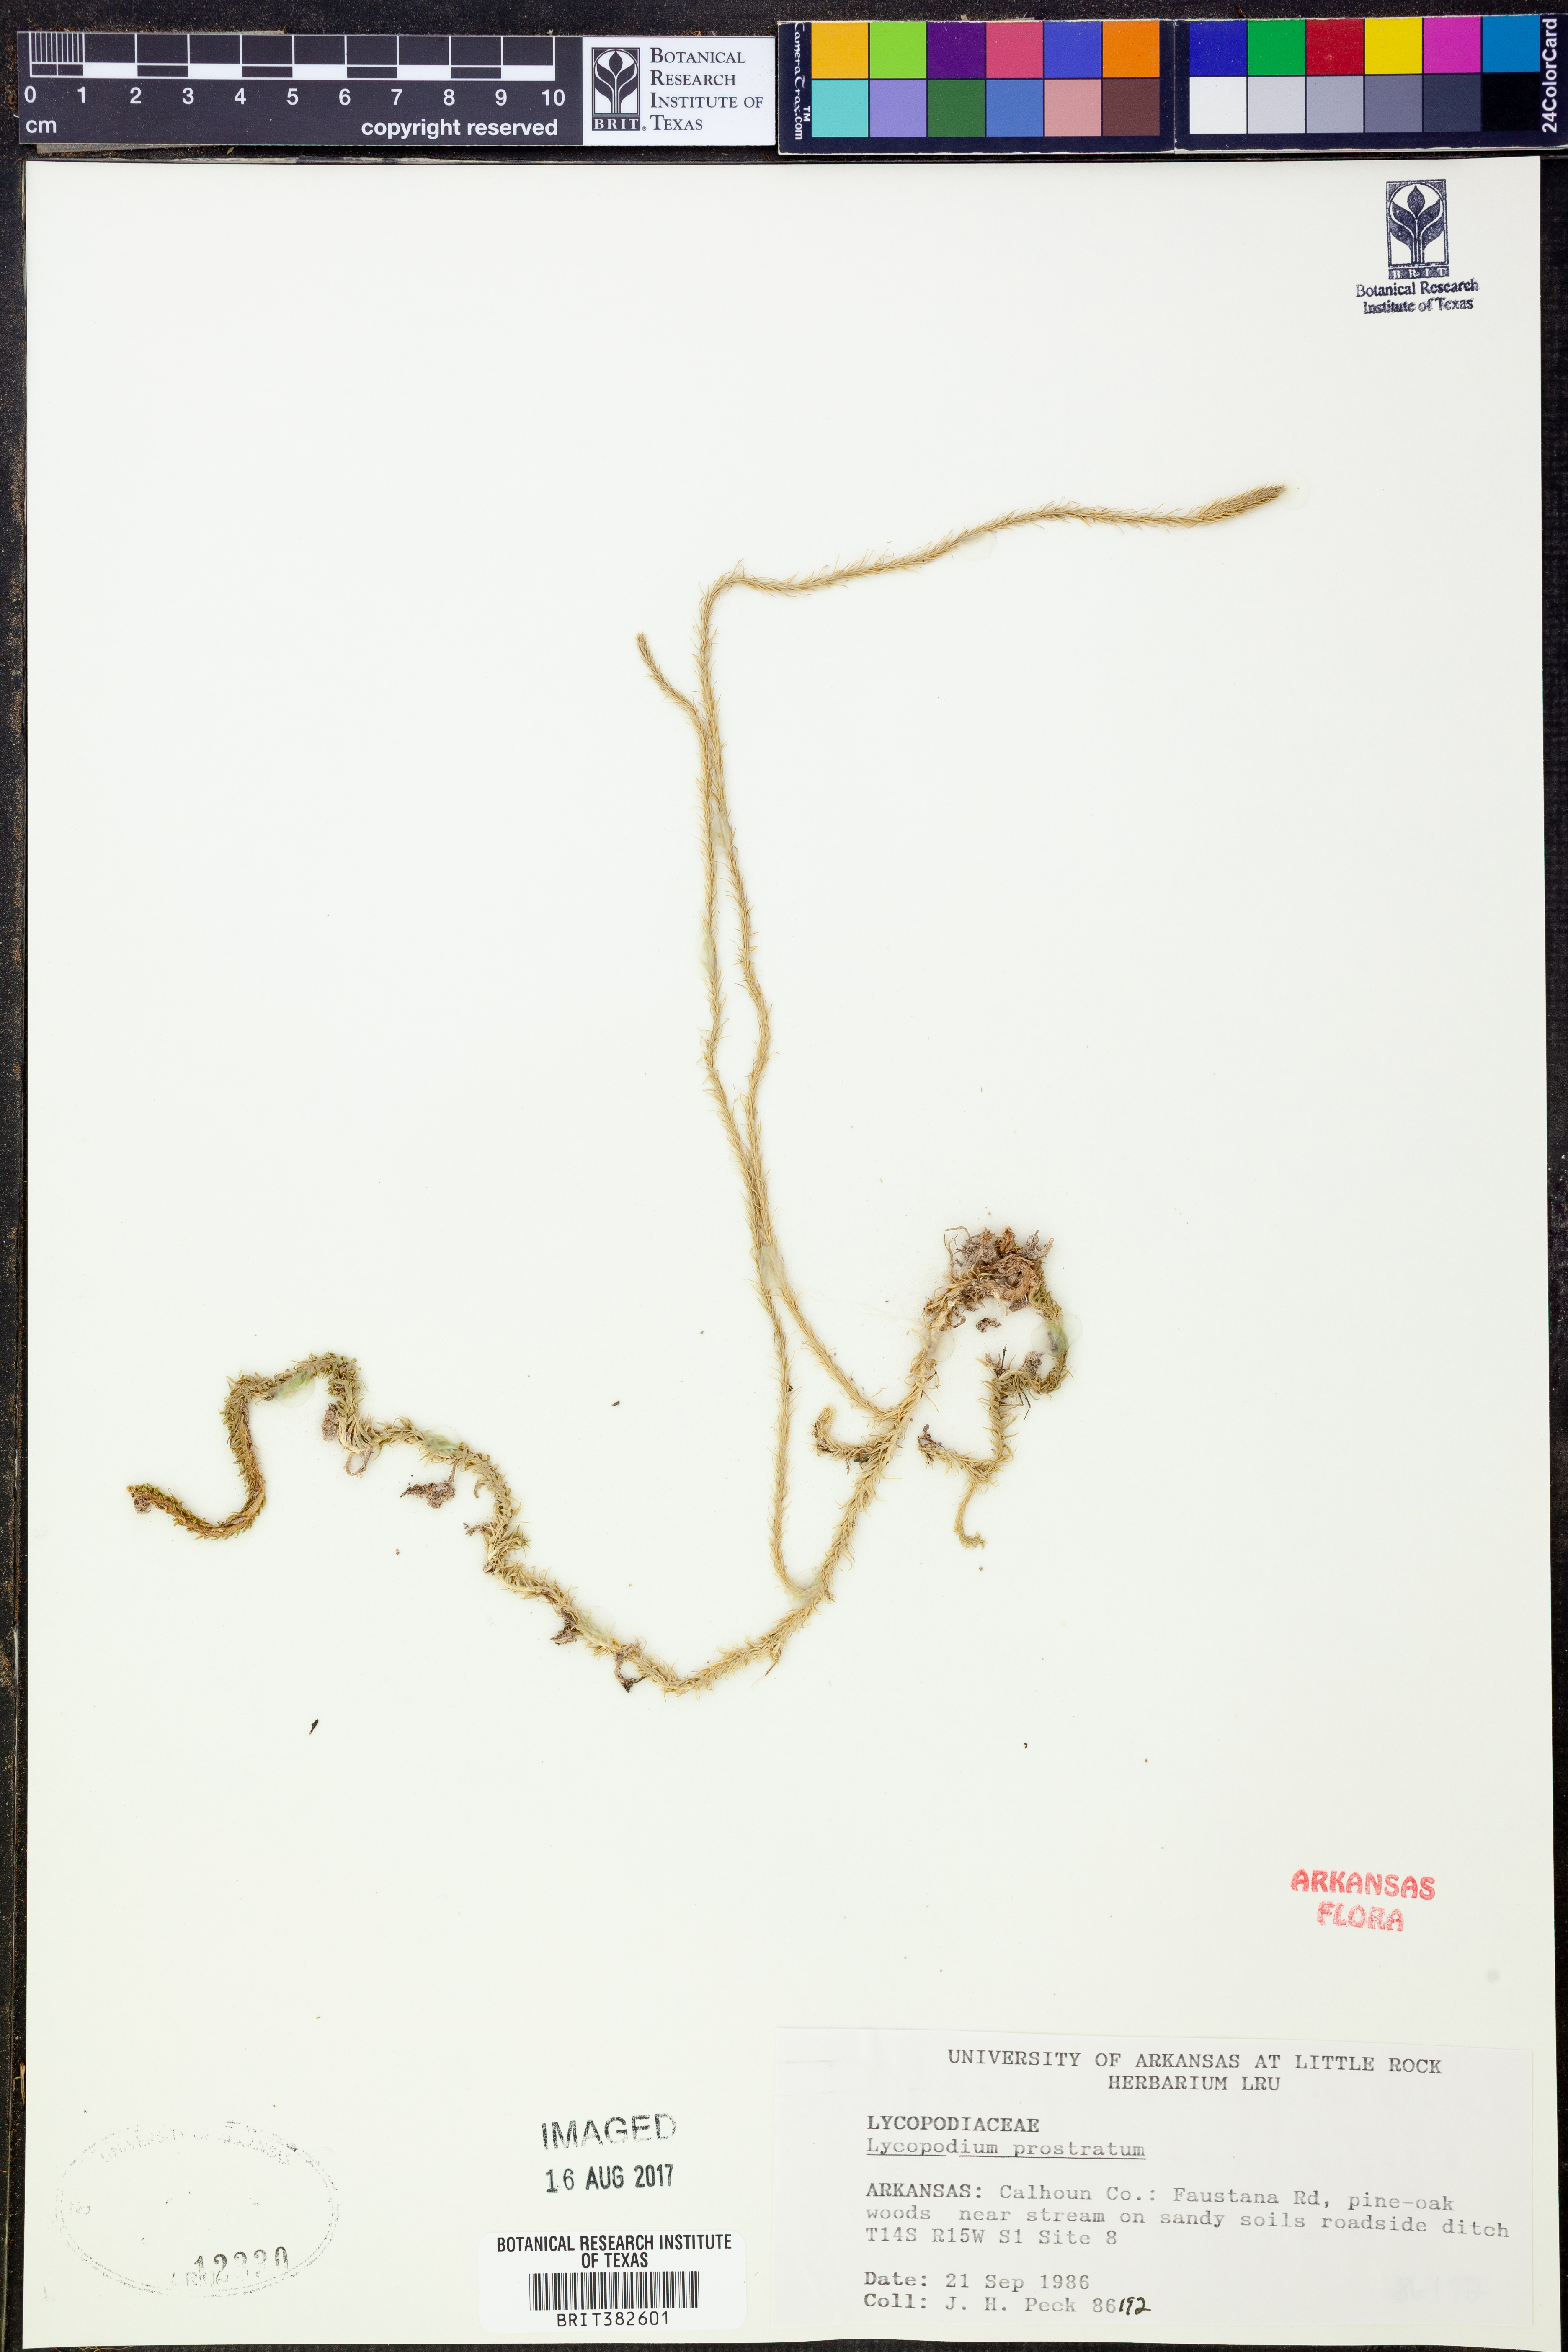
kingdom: Plantae
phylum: Tracheophyta
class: Lycopodiopsida
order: Lycopodiales
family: Lycopodiaceae
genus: Lycopodiella
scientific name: Lycopodiella prostrata
